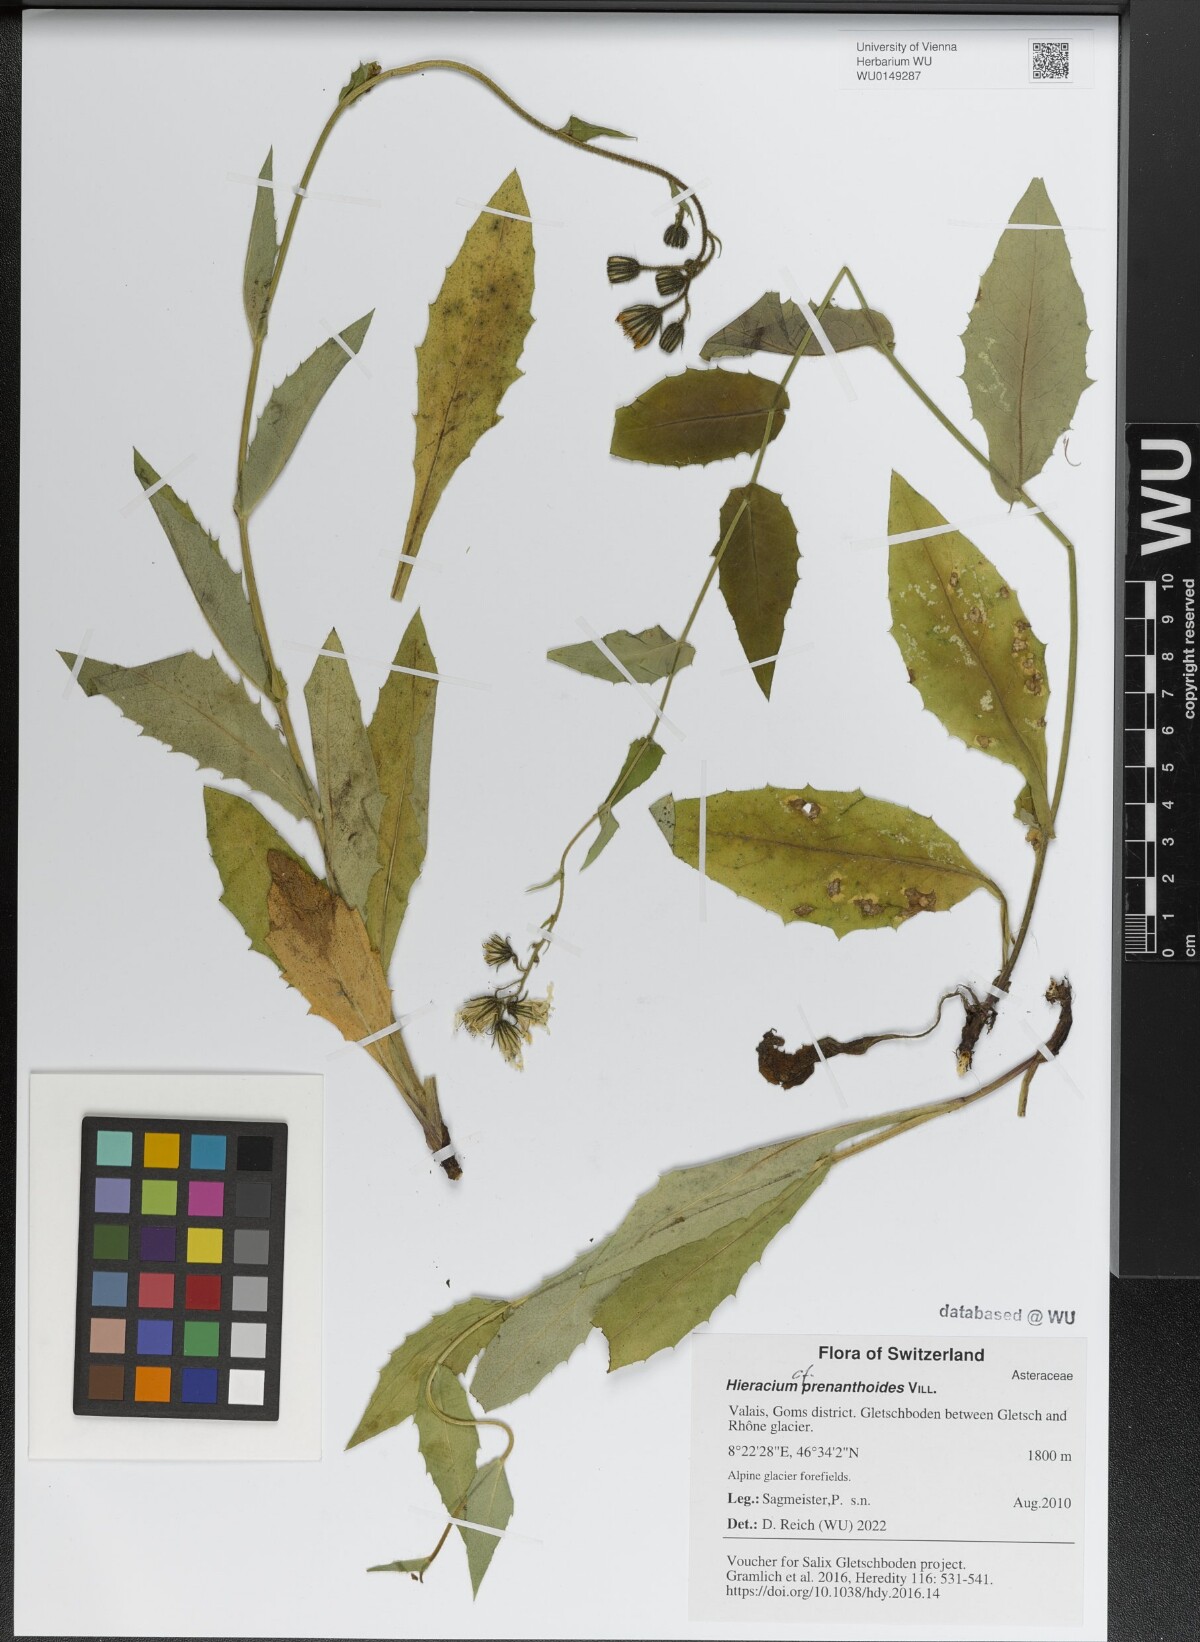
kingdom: Plantae
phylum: Tracheophyta
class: Magnoliopsida
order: Asterales
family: Asteraceae
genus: Hieracium
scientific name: Hieracium prenanthoides
